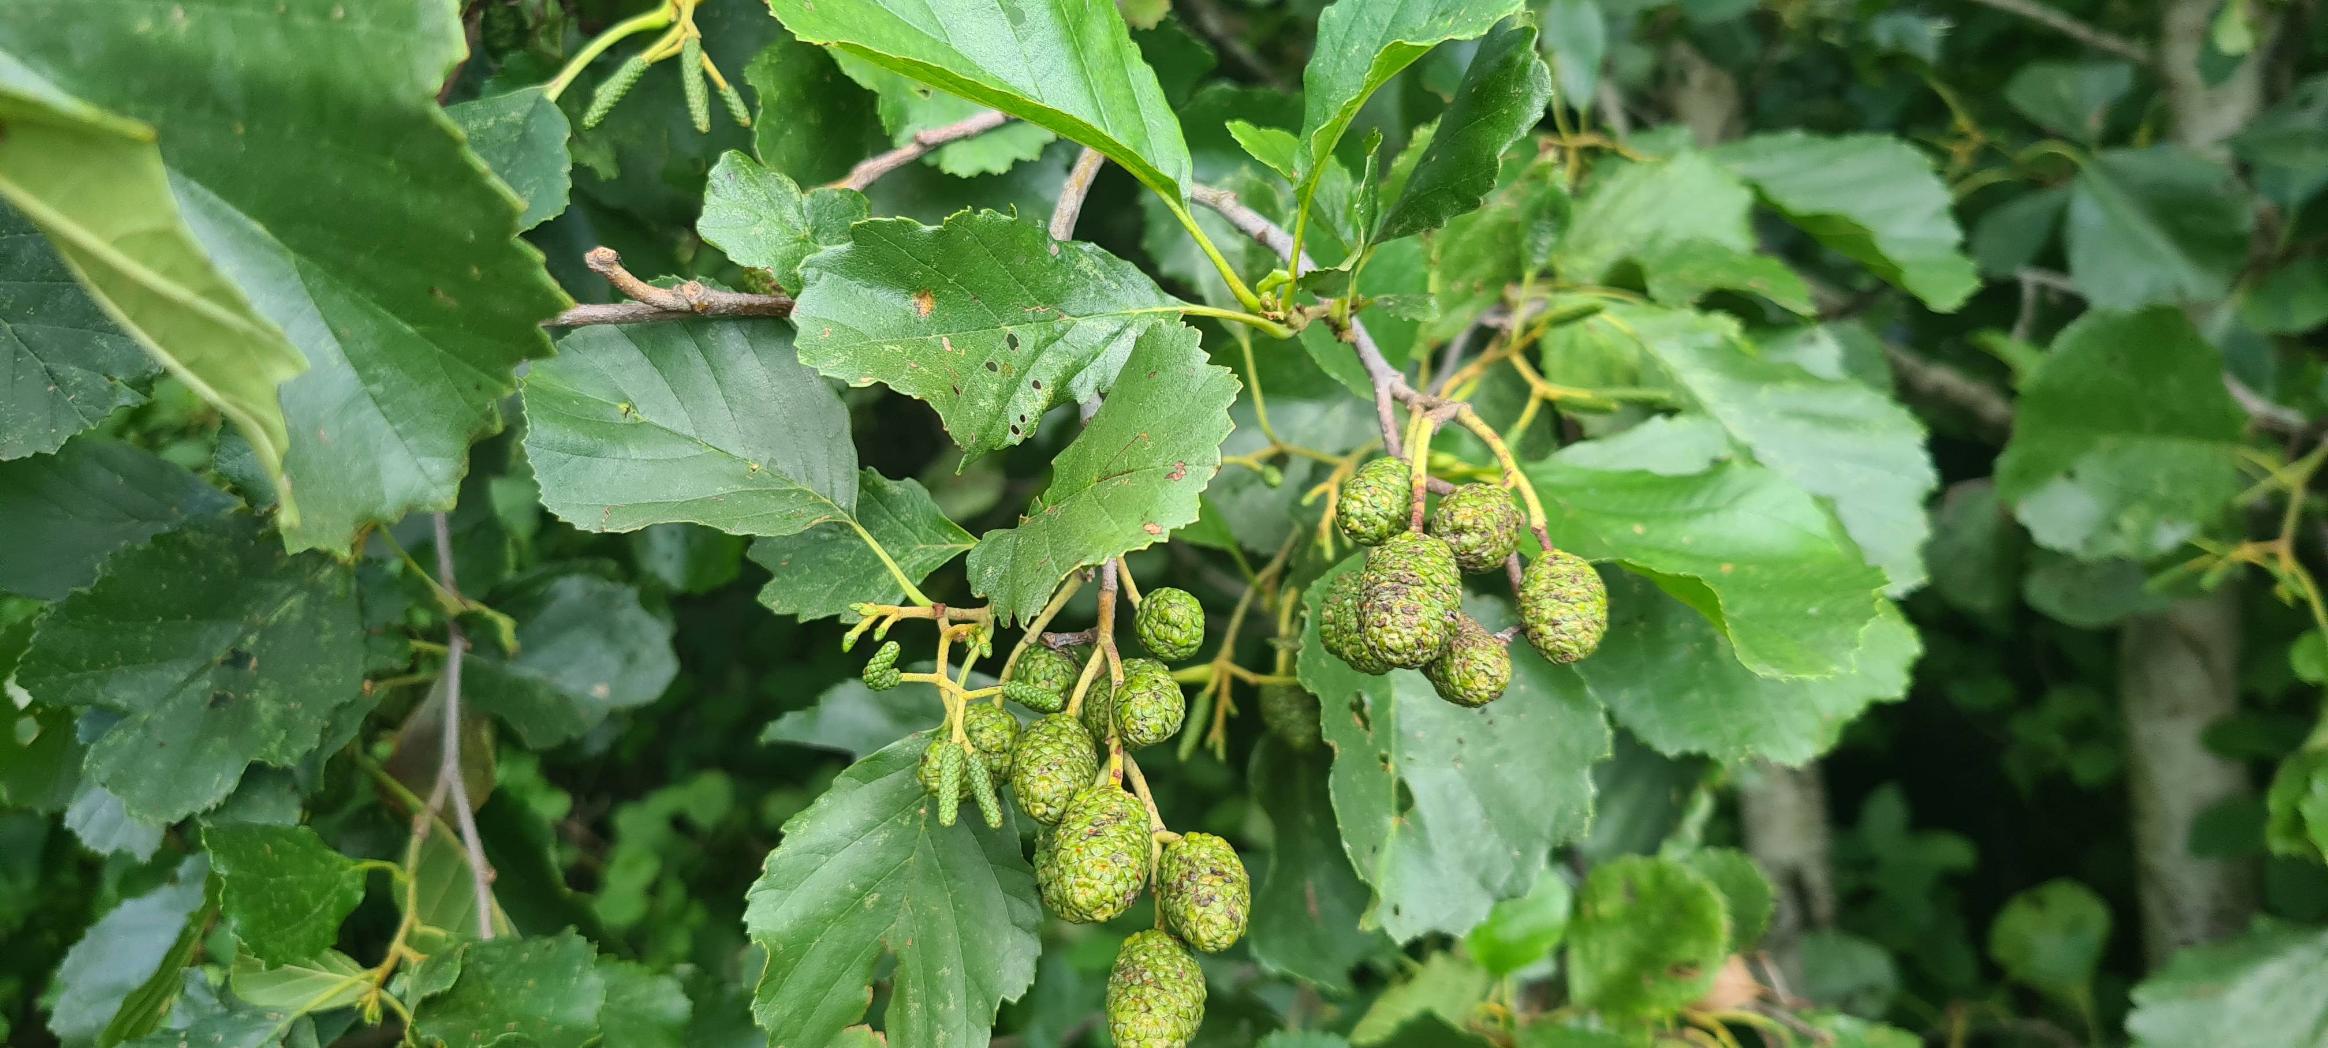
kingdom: Plantae
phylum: Tracheophyta
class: Magnoliopsida
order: Fagales
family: Betulaceae
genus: Alnus
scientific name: Alnus glutinosa
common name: Rød-el
